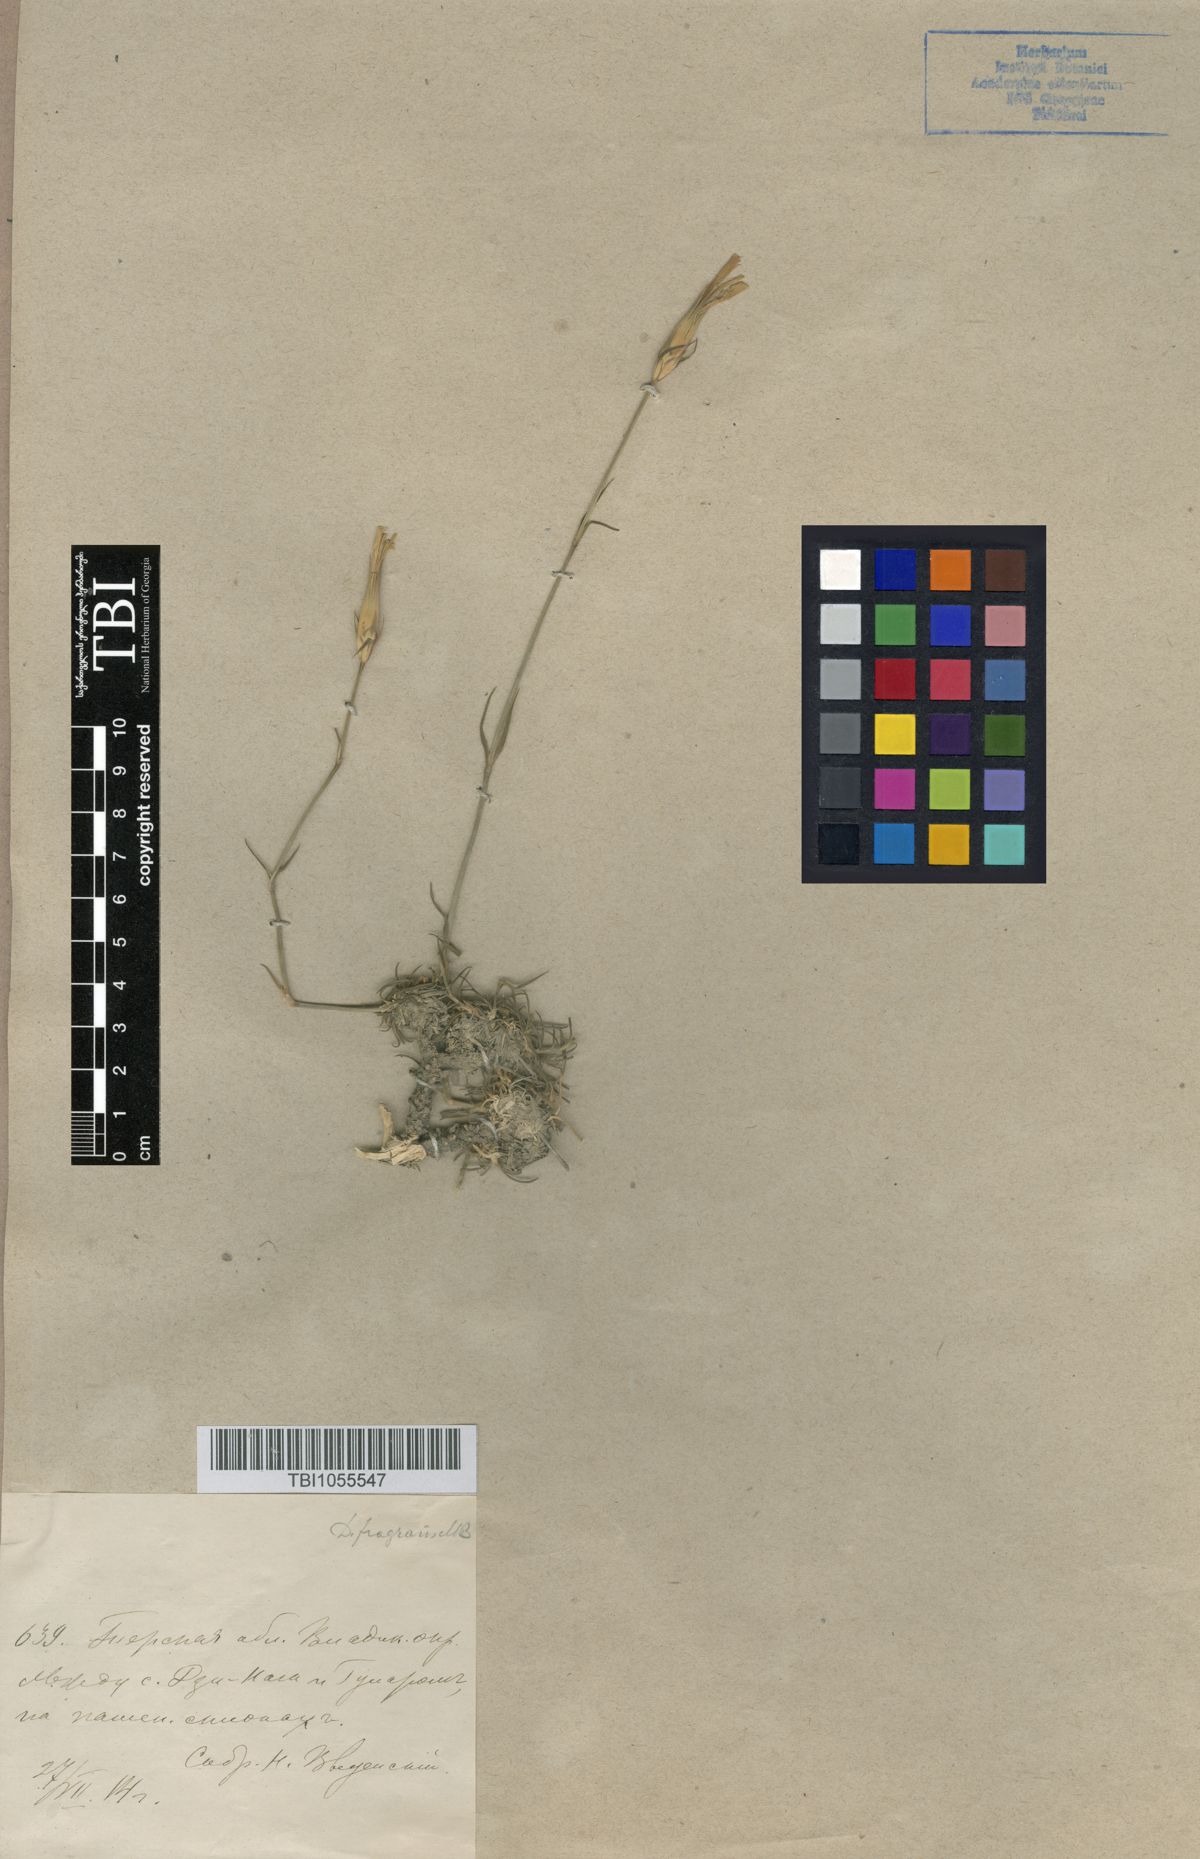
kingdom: Plantae
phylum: Tracheophyta
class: Magnoliopsida
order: Caryophyllales
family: Caryophyllaceae
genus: Dianthus
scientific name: Dianthus
